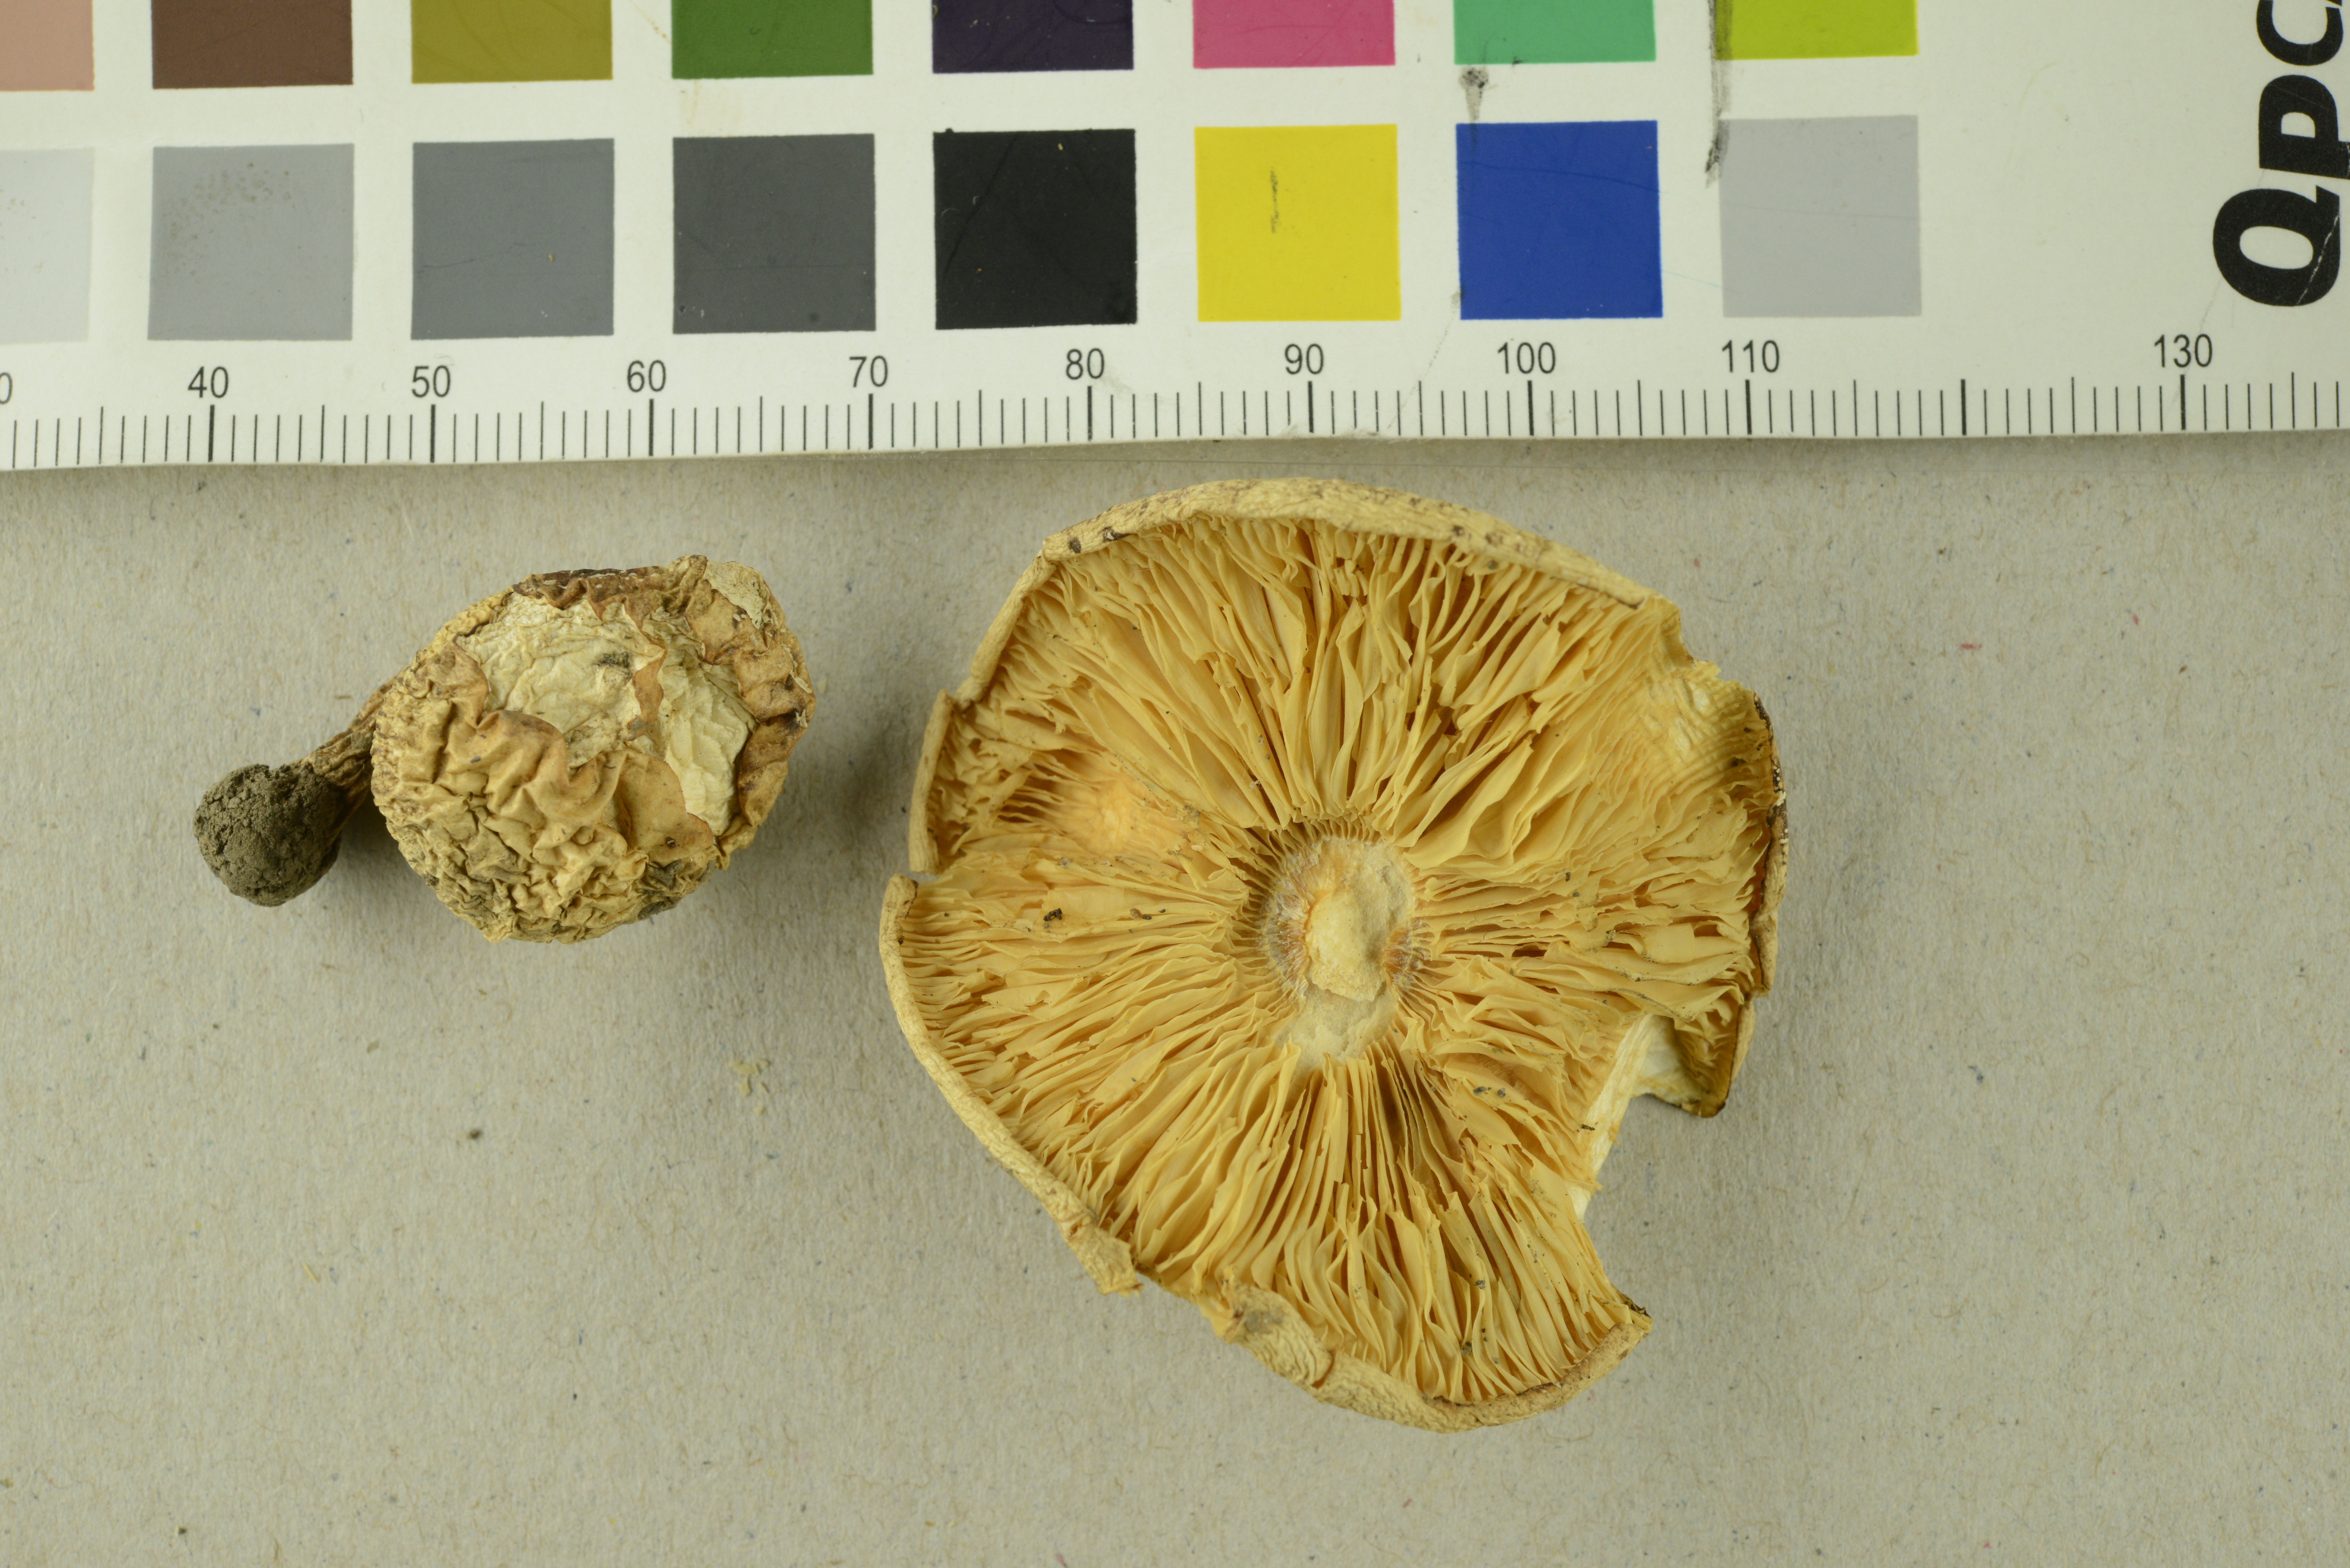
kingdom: Fungi
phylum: Basidiomycota
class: Agaricomycetes
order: Agaricales
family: Agaricaceae
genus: Chamaemyces
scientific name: Chamaemyces fracidus
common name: Dewdrop dapperling
